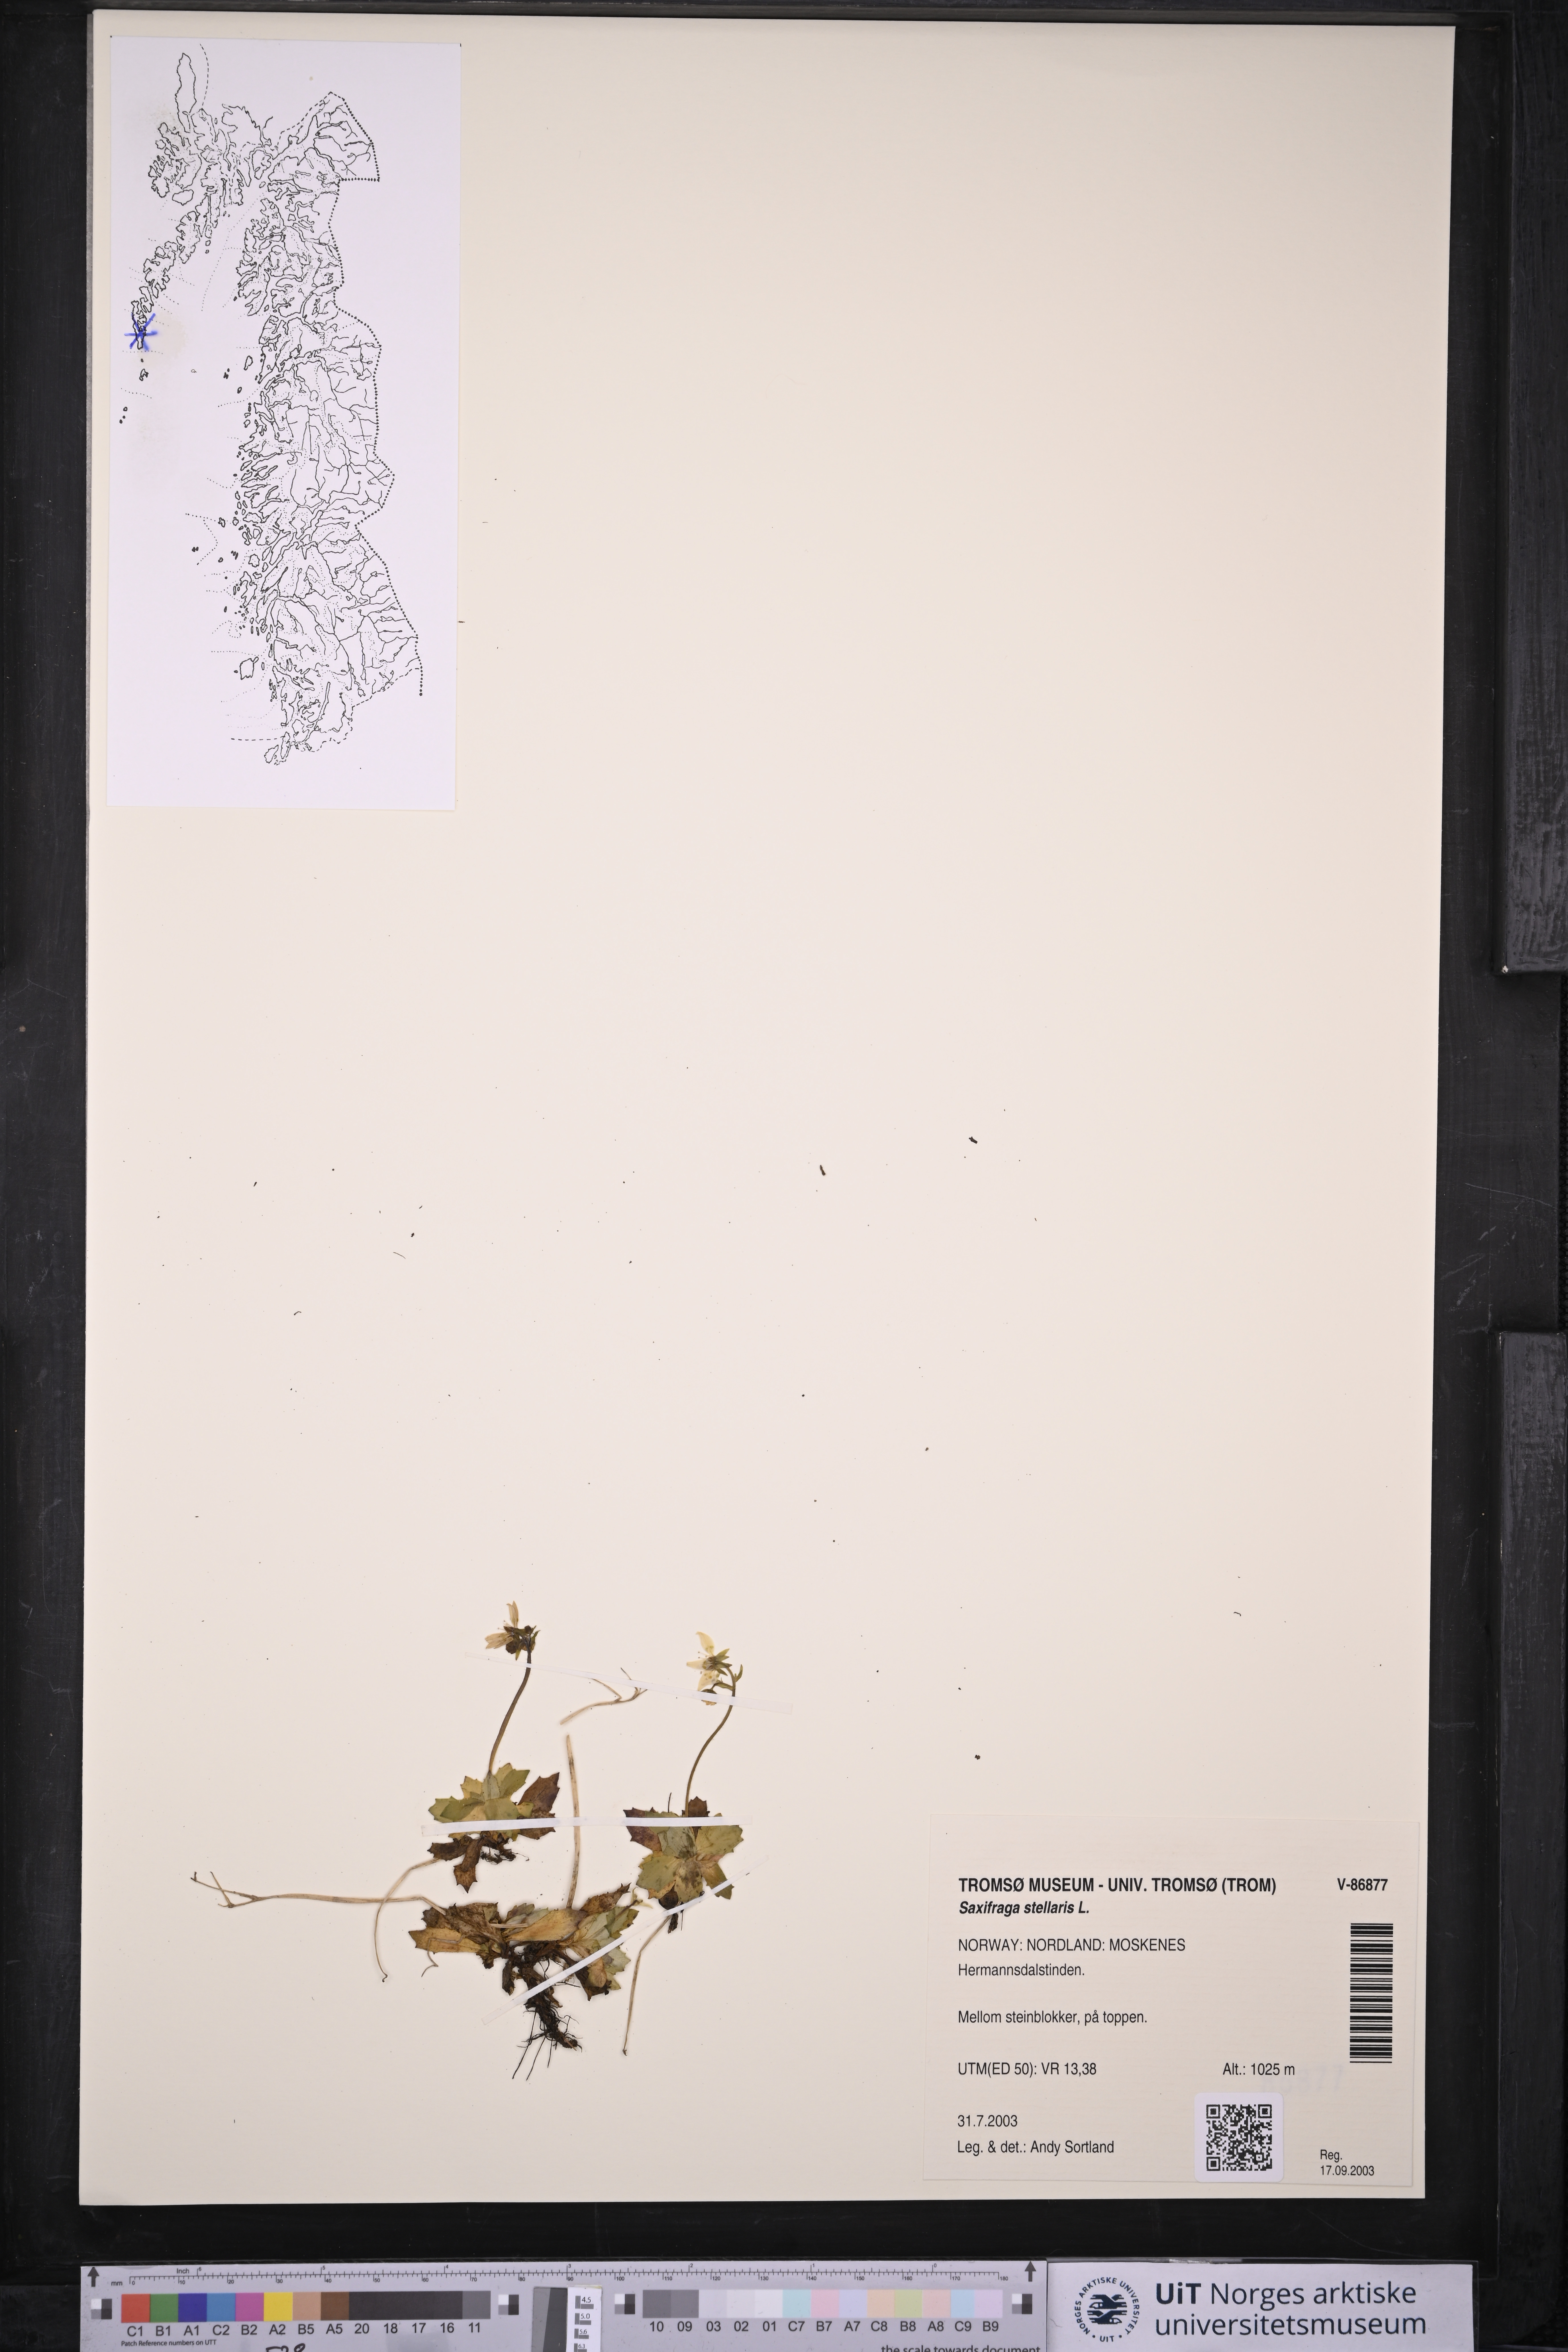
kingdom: Plantae
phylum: Tracheophyta
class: Magnoliopsida
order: Saxifragales
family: Saxifragaceae
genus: Micranthes
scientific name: Micranthes stellaris
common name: Starry saxifrage
